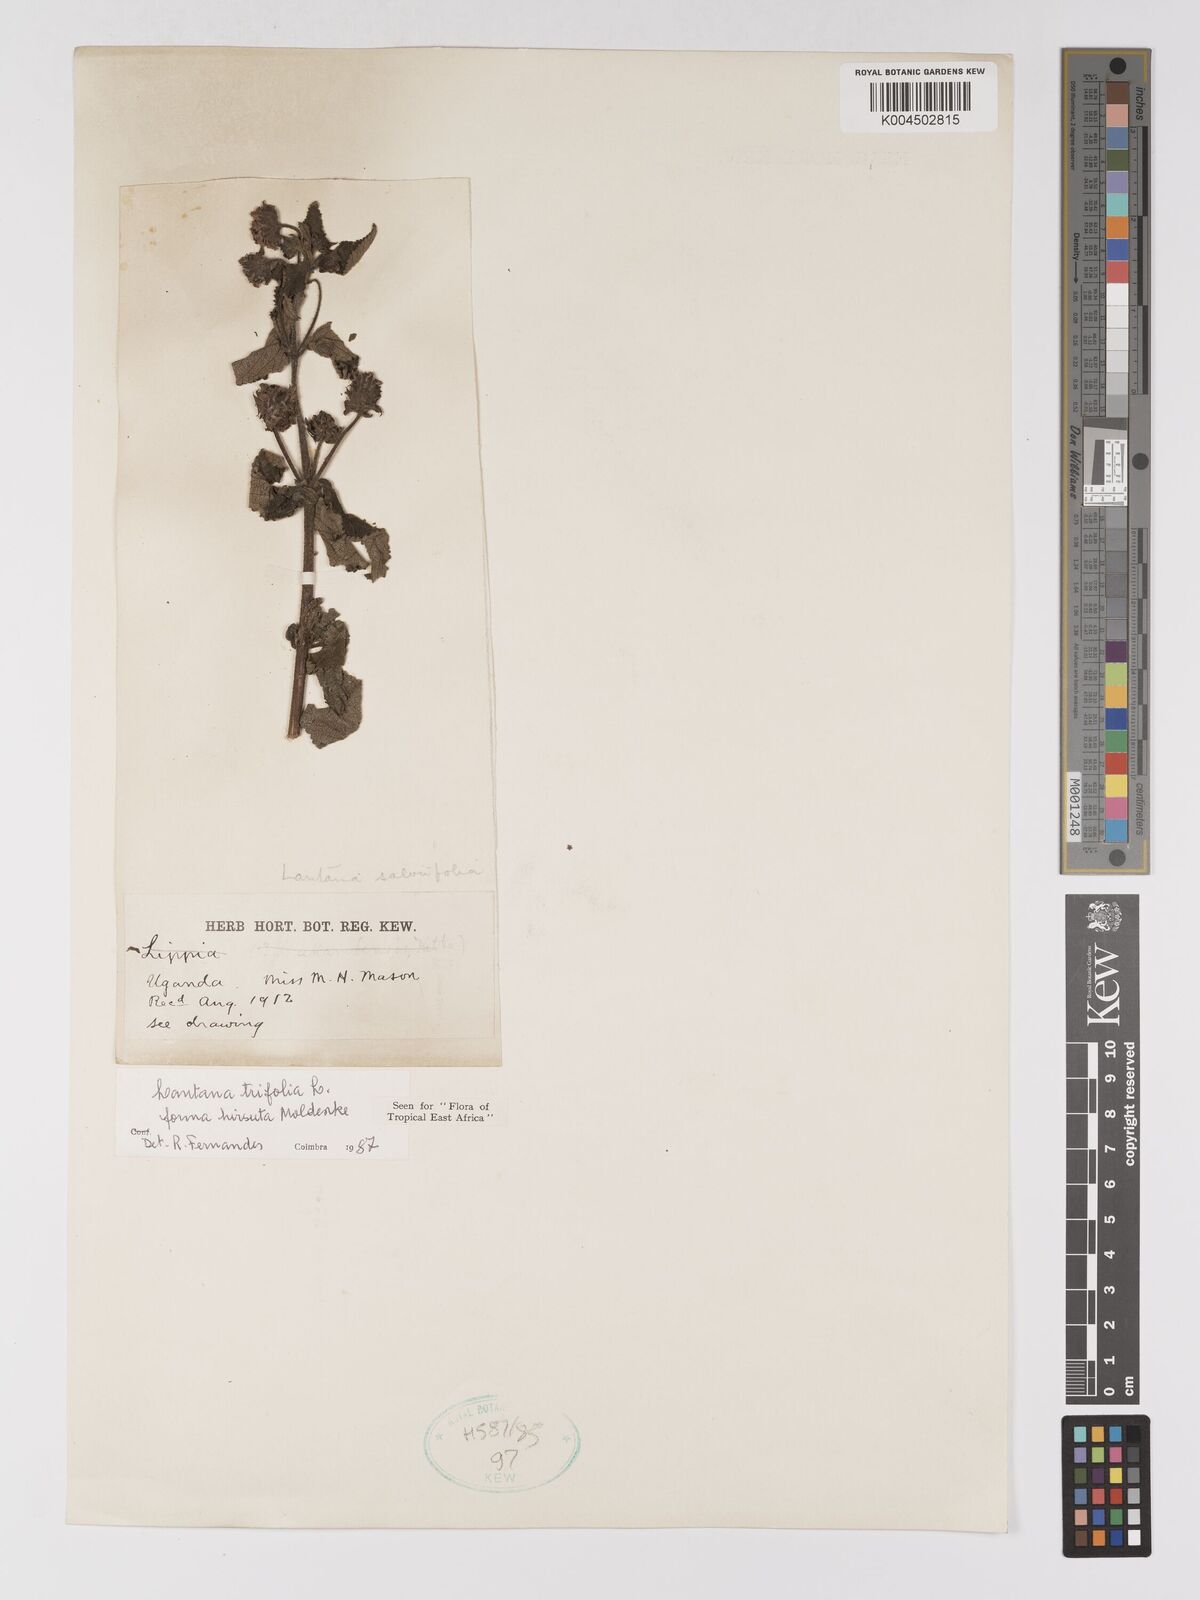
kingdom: Plantae
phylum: Tracheophyta
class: Magnoliopsida
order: Lamiales
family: Verbenaceae
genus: Lantana
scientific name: Lantana trifolia
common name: Sweet-sage
